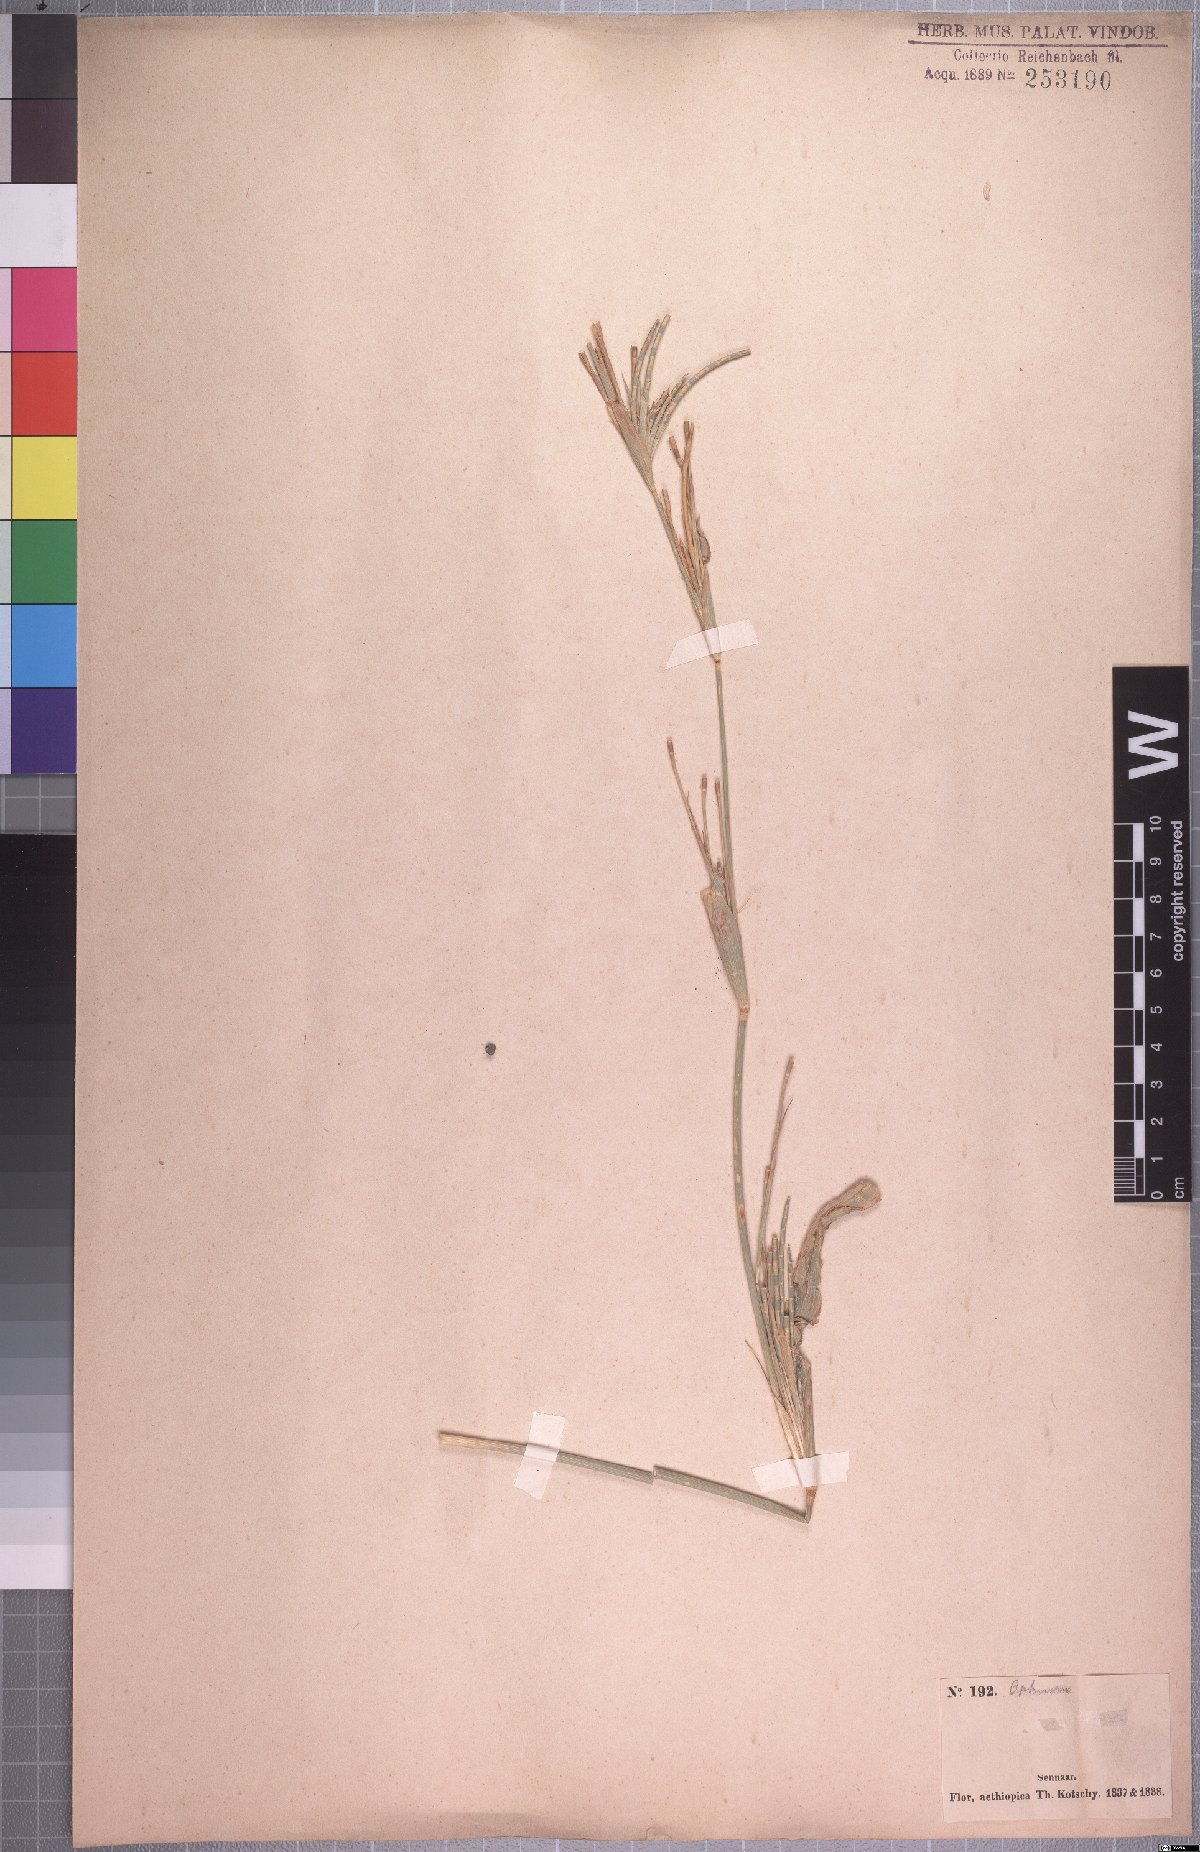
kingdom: Plantae
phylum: Tracheophyta
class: Liliopsida
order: Poales
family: Poaceae
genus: Ophiuros
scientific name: Ophiuros papillosus
